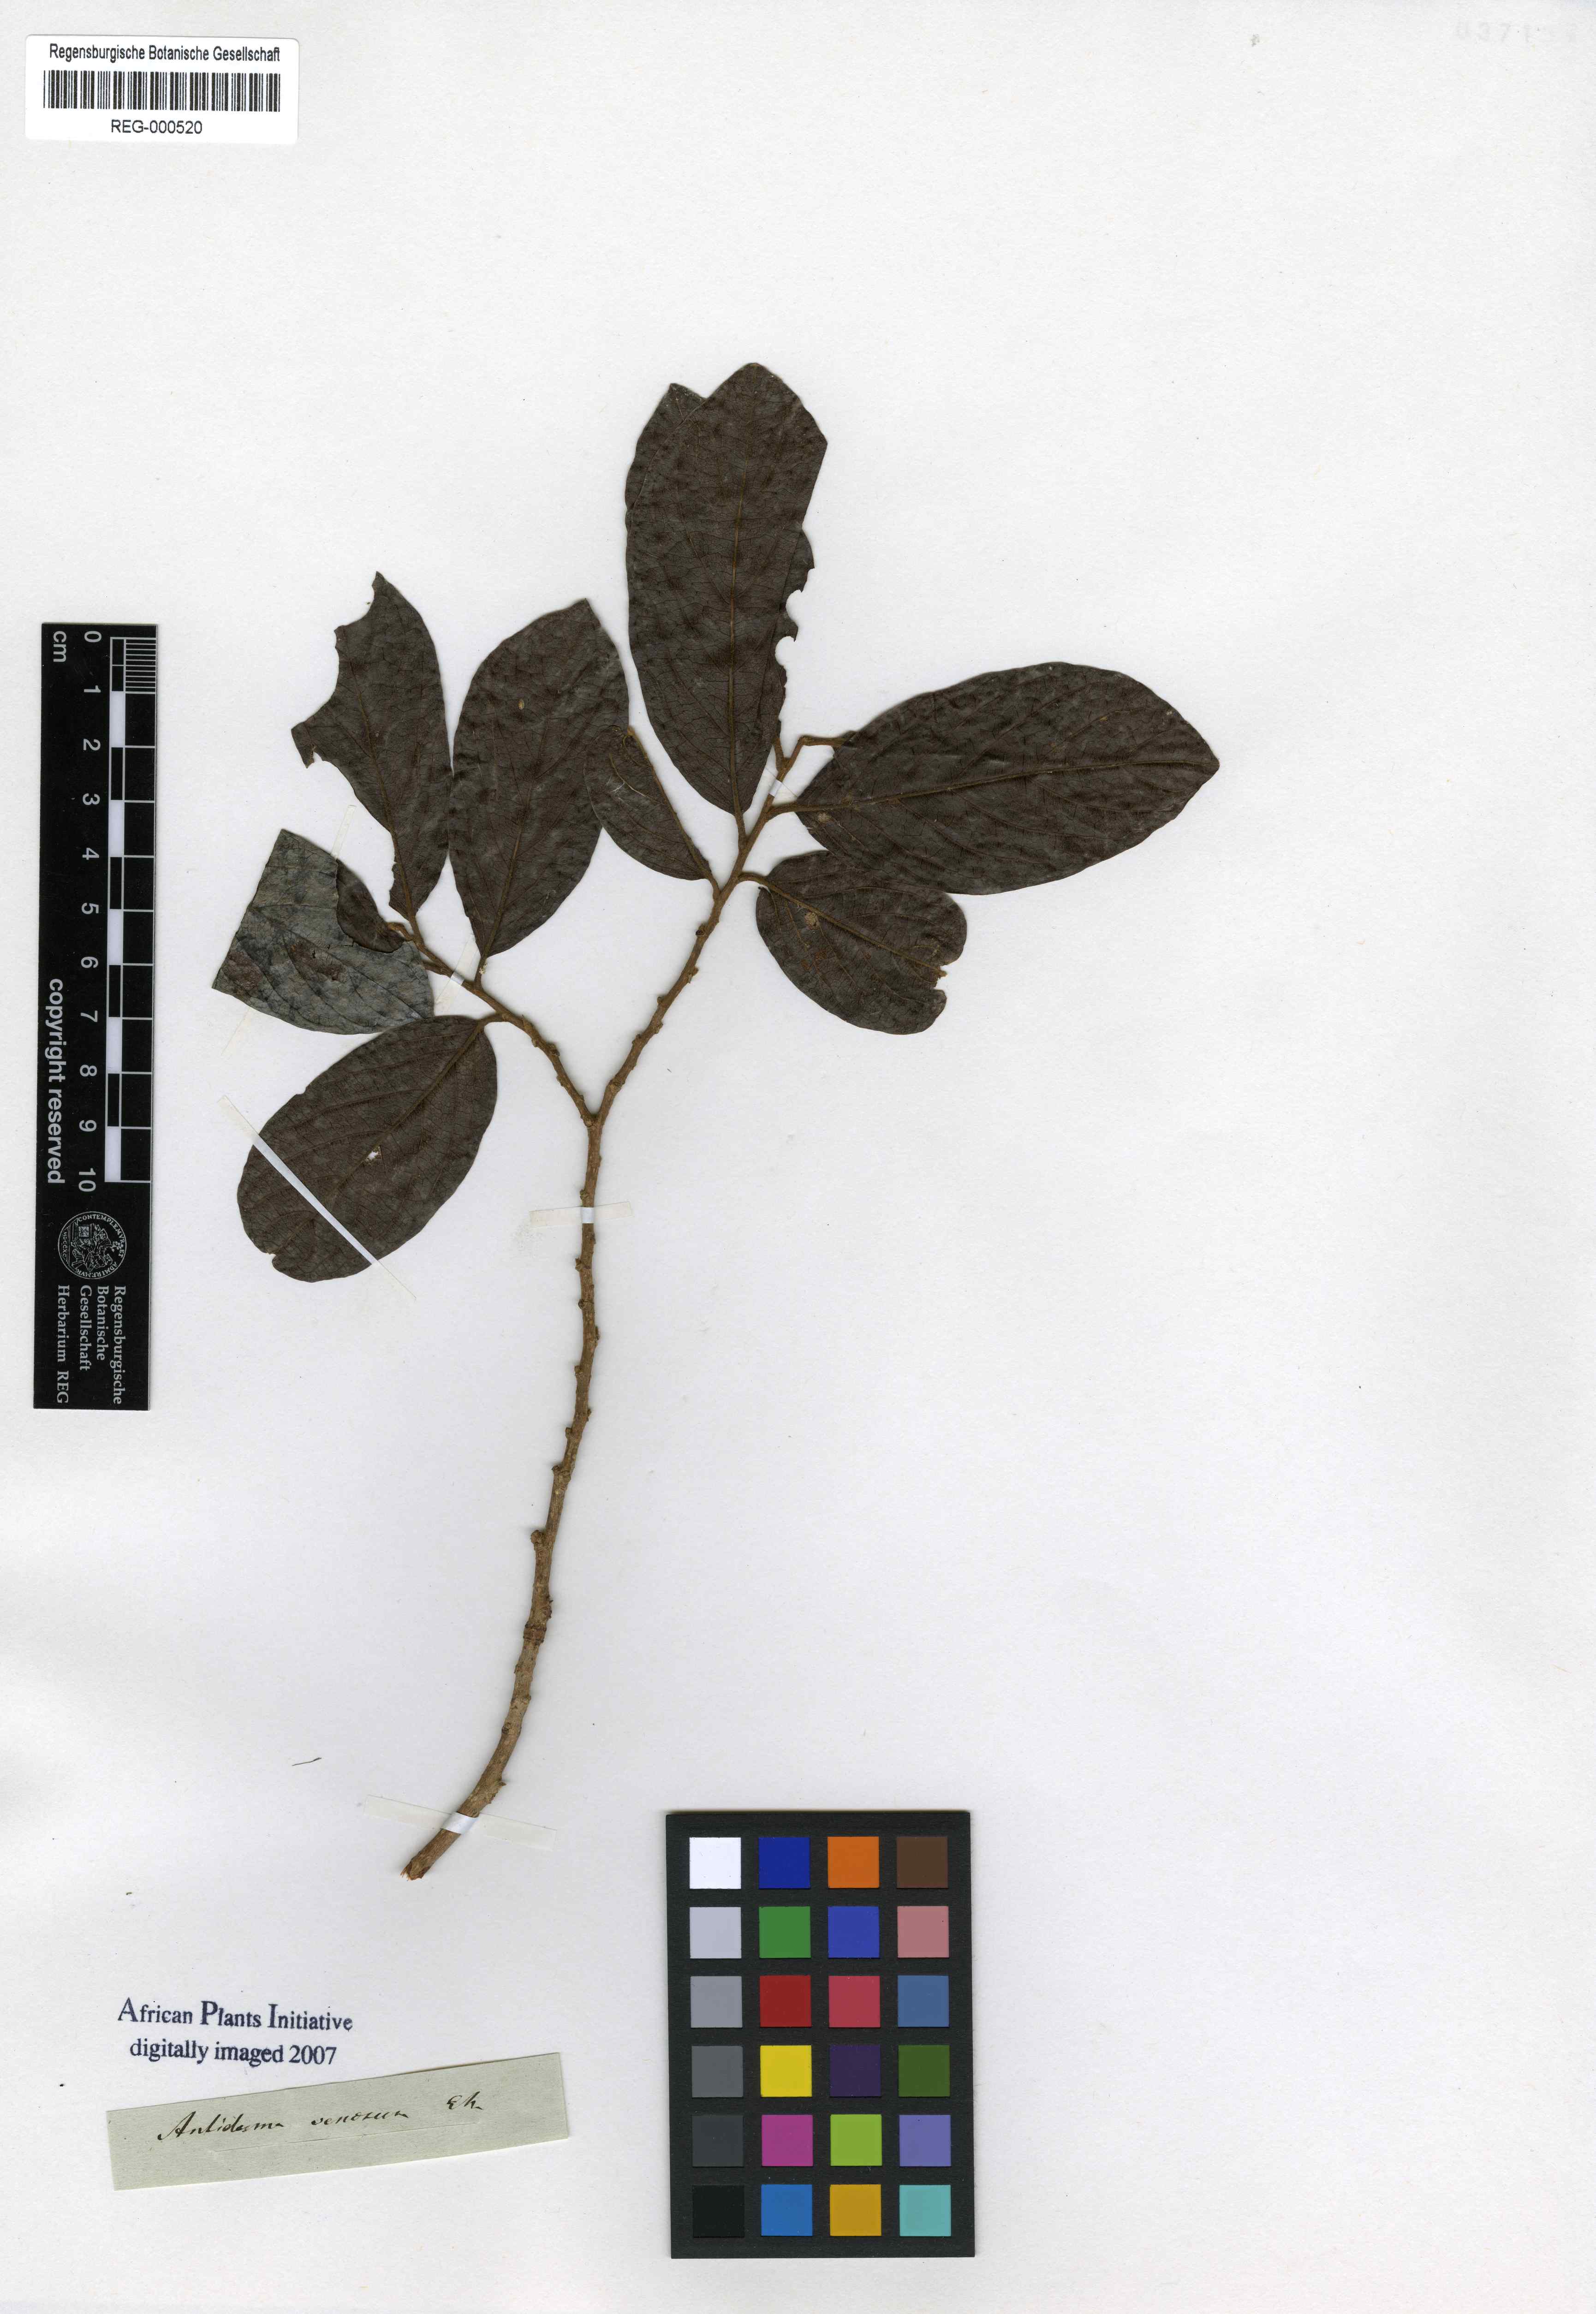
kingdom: Plantae
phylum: Tracheophyta
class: Magnoliopsida
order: Malpighiales
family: Phyllanthaceae
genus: Antidesma
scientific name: Antidesma venosum
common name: Tassel-berry
